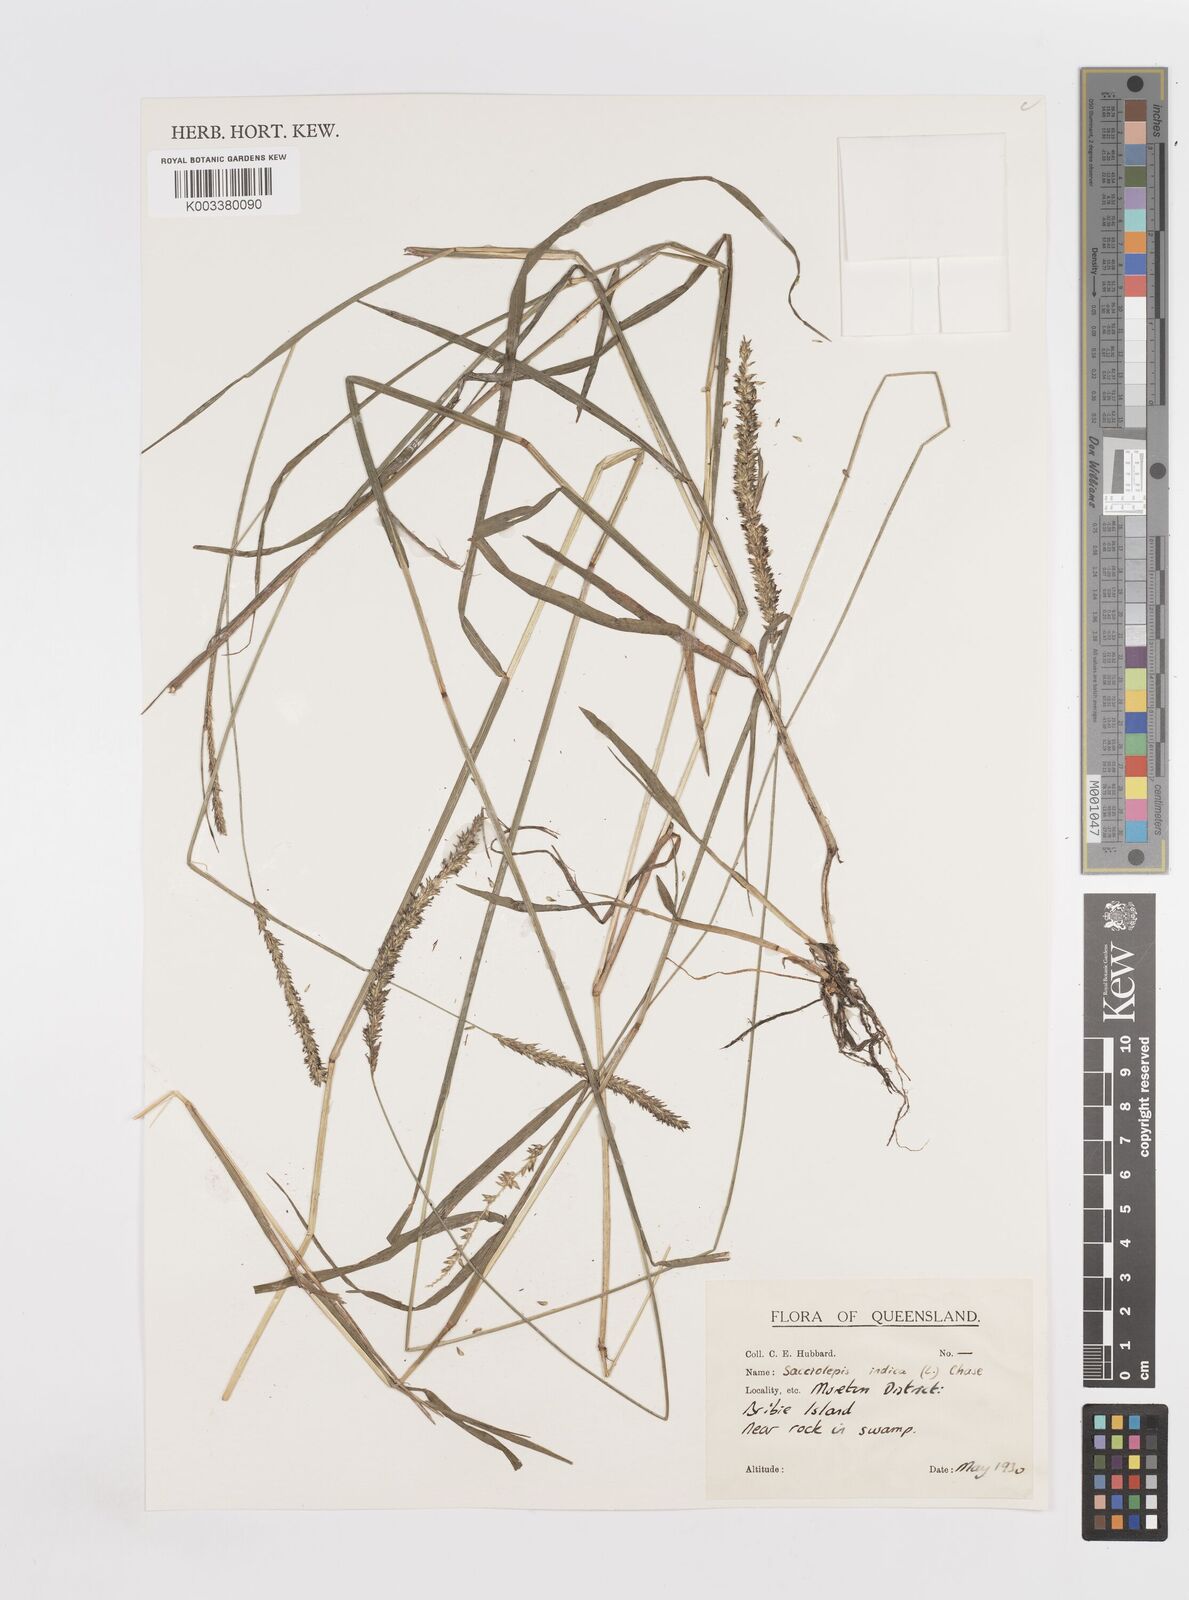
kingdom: Plantae
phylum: Tracheophyta
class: Liliopsida
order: Poales
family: Poaceae
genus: Sacciolepis
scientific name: Sacciolepis indica
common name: Glenwoodgrass
